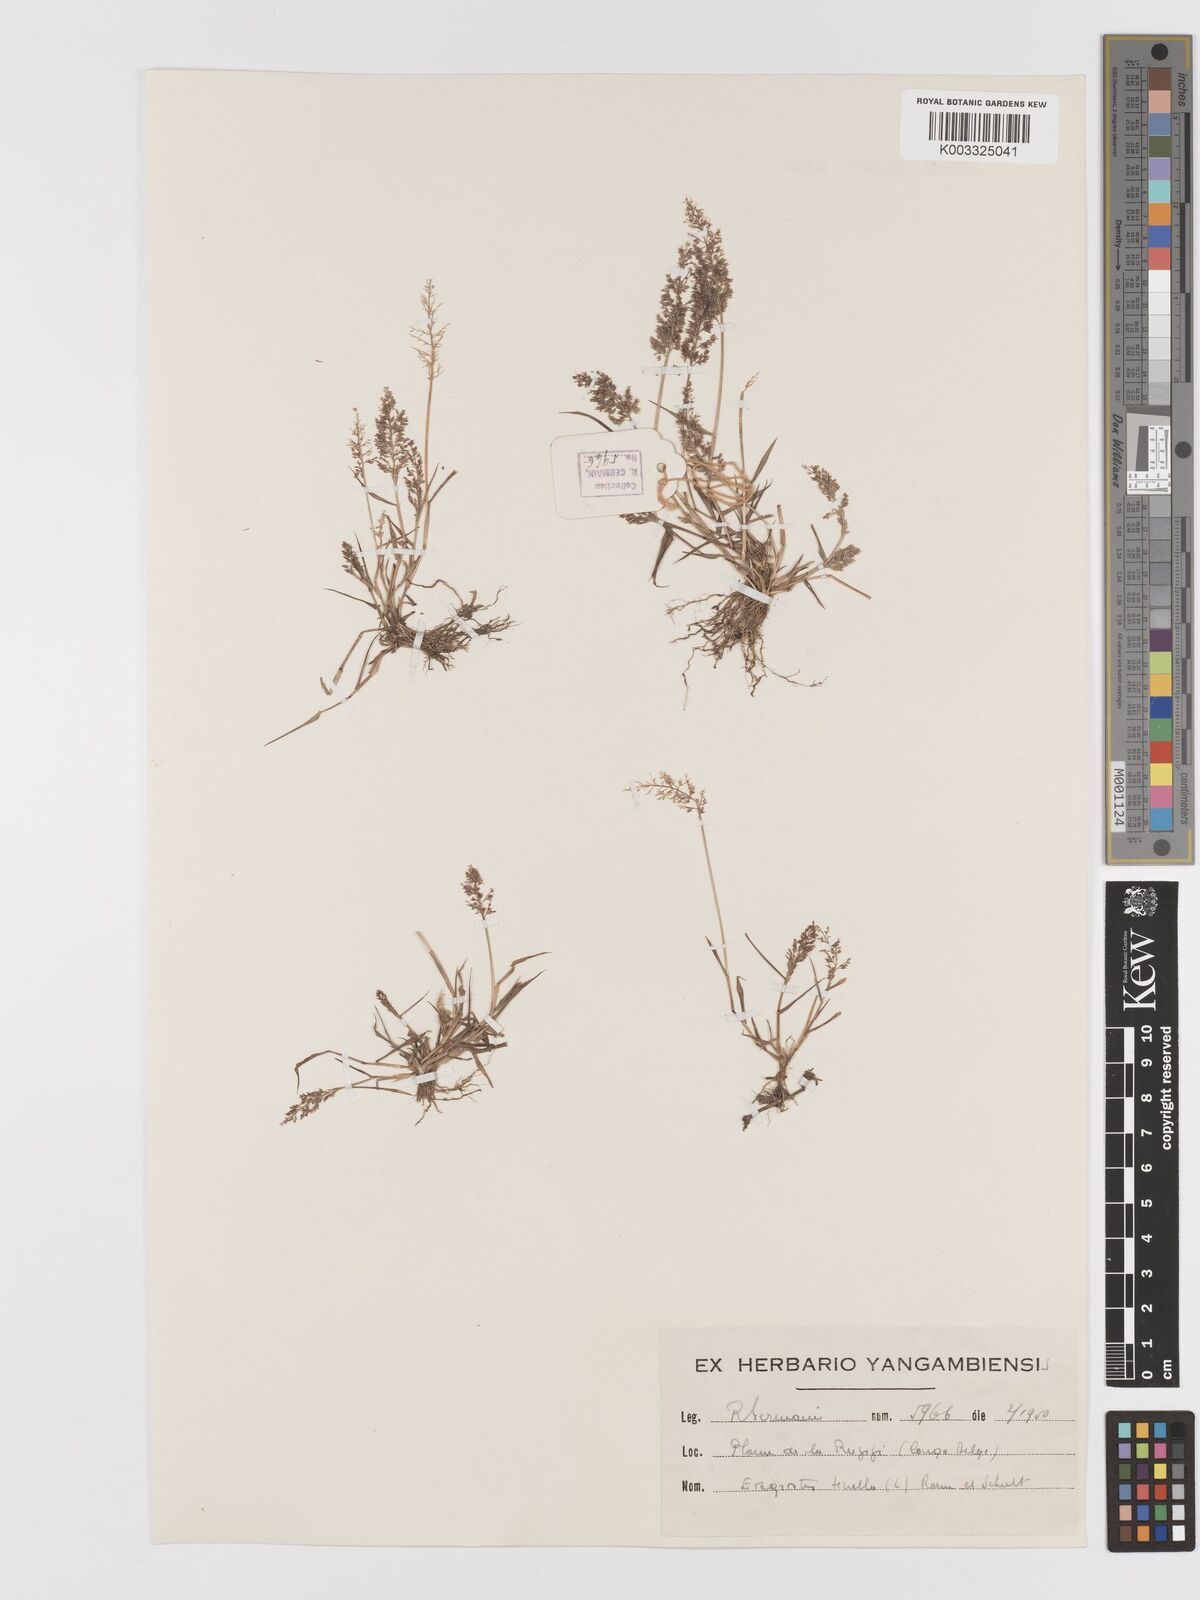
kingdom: Plantae
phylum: Tracheophyta
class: Liliopsida
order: Poales
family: Poaceae
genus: Eragrostis
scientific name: Eragrostis tenella
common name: Japanese lovegrass
